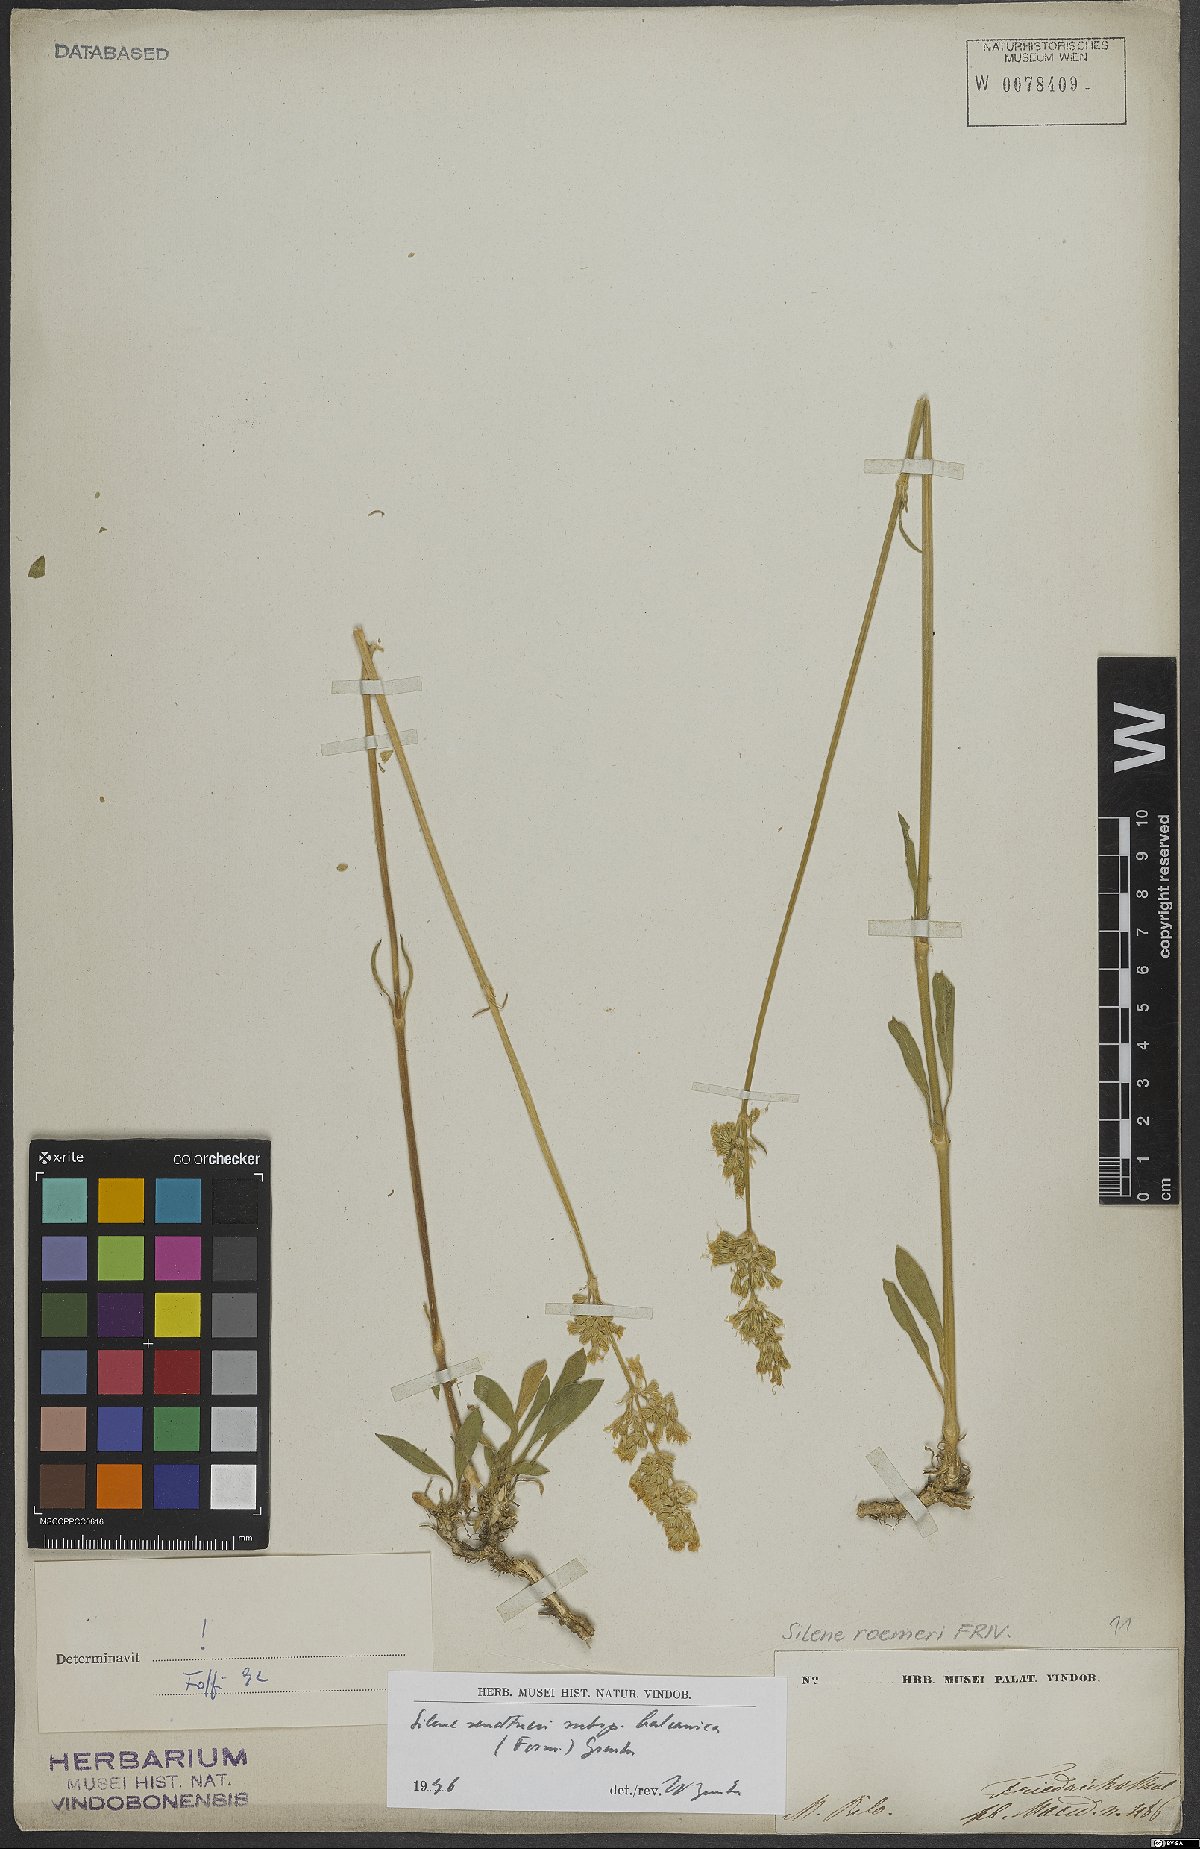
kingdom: Plantae
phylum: Tracheophyta
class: Magnoliopsida
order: Caryophyllales
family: Caryophyllaceae
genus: Silene
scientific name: Silene sendtneri
